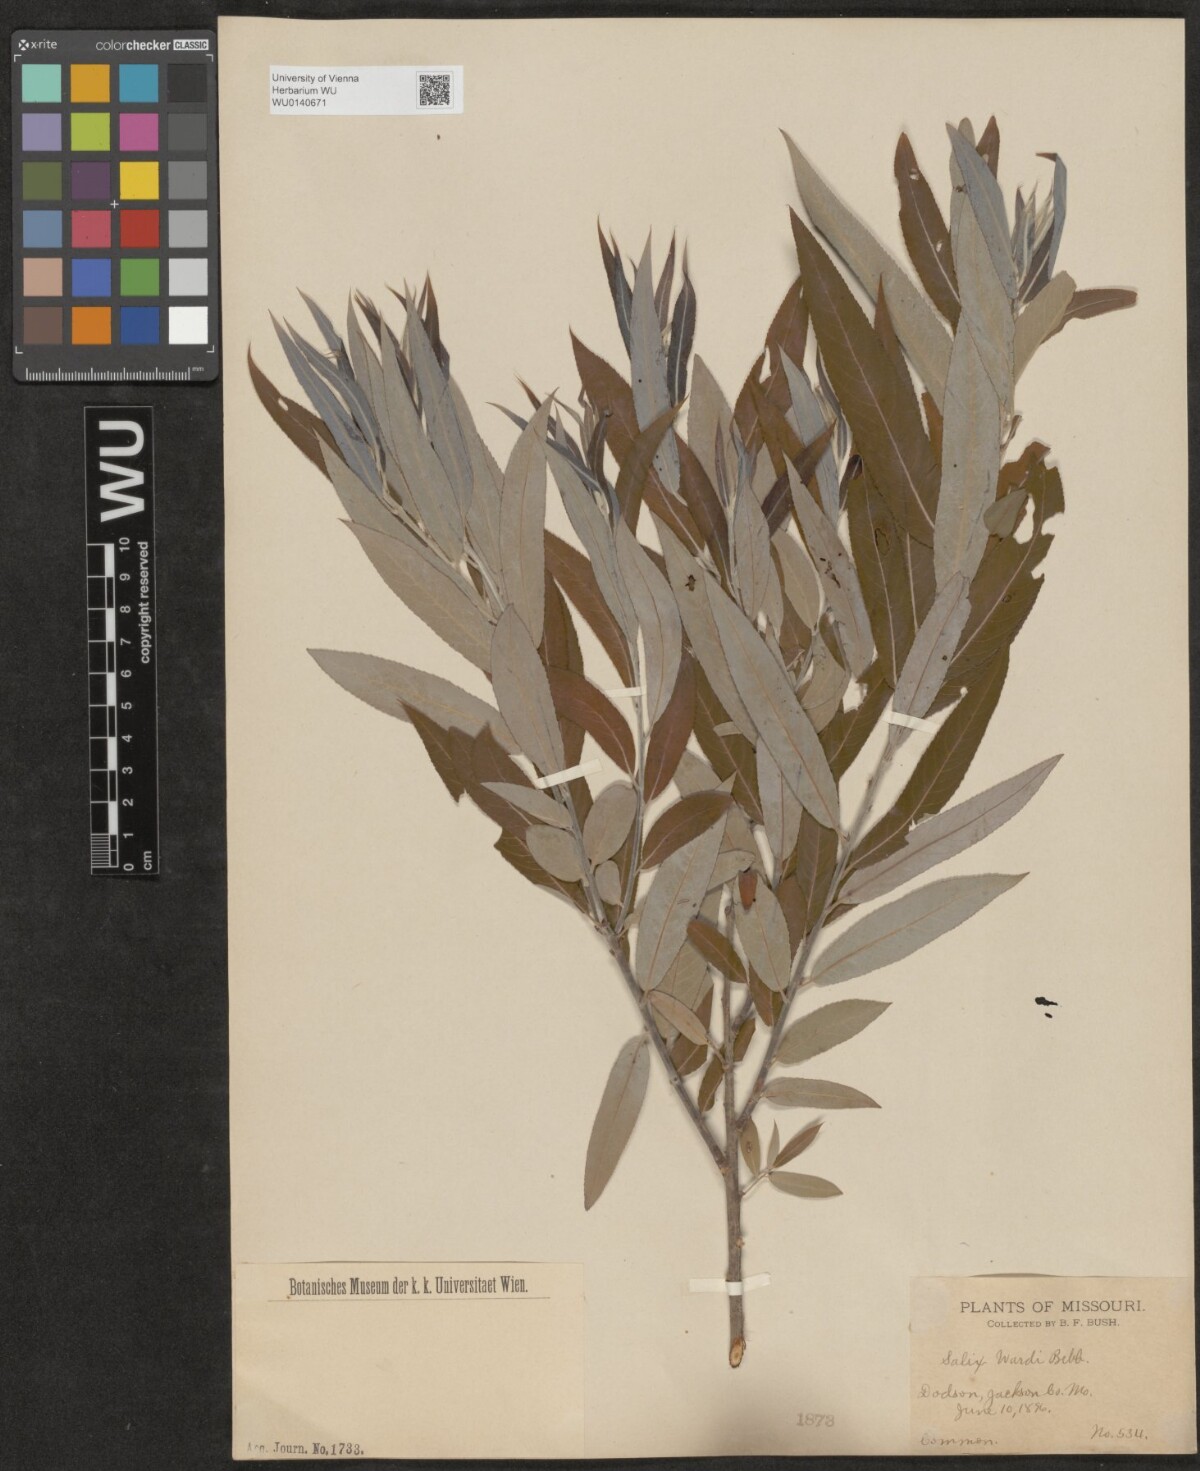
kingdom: Plantae
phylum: Tracheophyta
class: Magnoliopsida
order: Malpighiales
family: Salicaceae
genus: Salix
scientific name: Salix caroliniana
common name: Carolina willow
